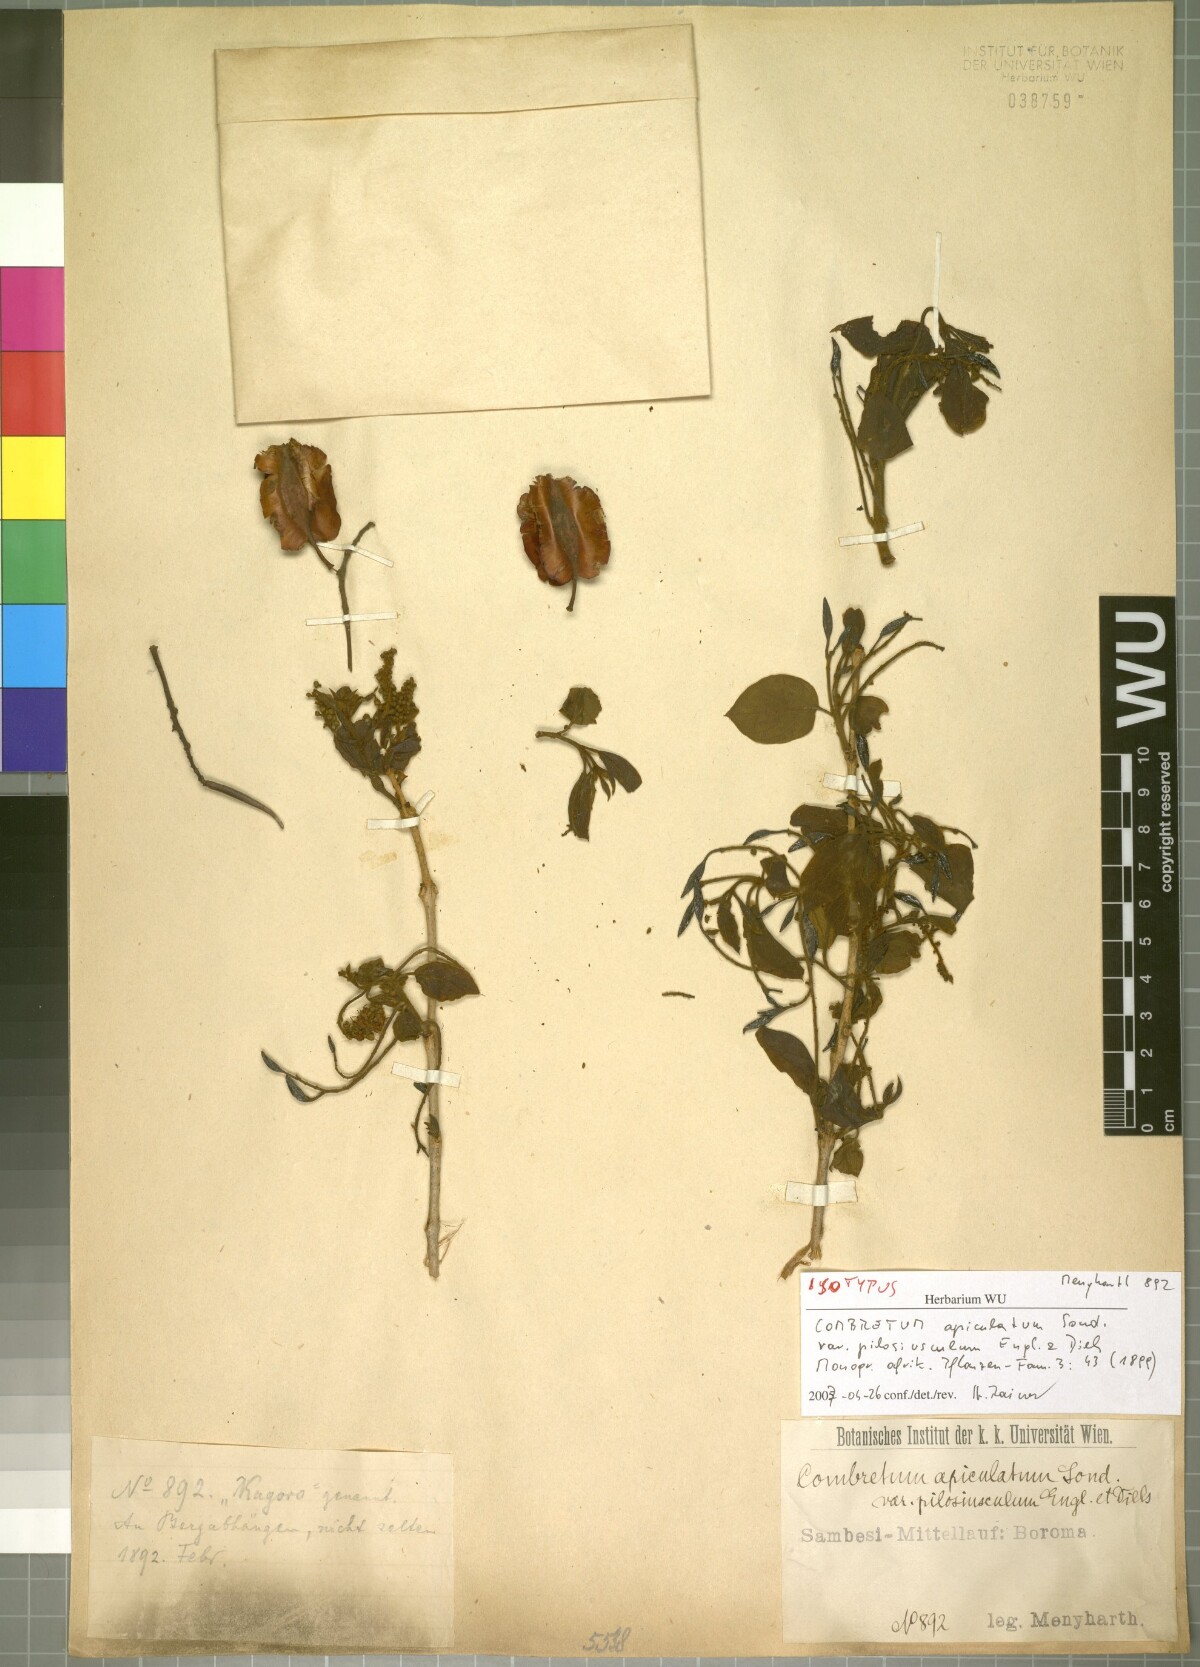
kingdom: Plantae
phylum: Tracheophyta
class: Magnoliopsida
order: Myrtales
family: Combretaceae
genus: Combretum
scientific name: Combretum apiculatum
